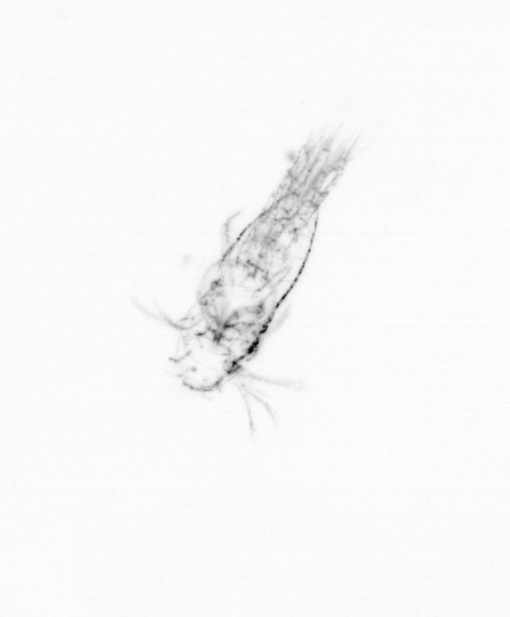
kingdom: Chromista
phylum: Ochrophyta
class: Bacillariophyceae
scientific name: Bacillariophyceae
